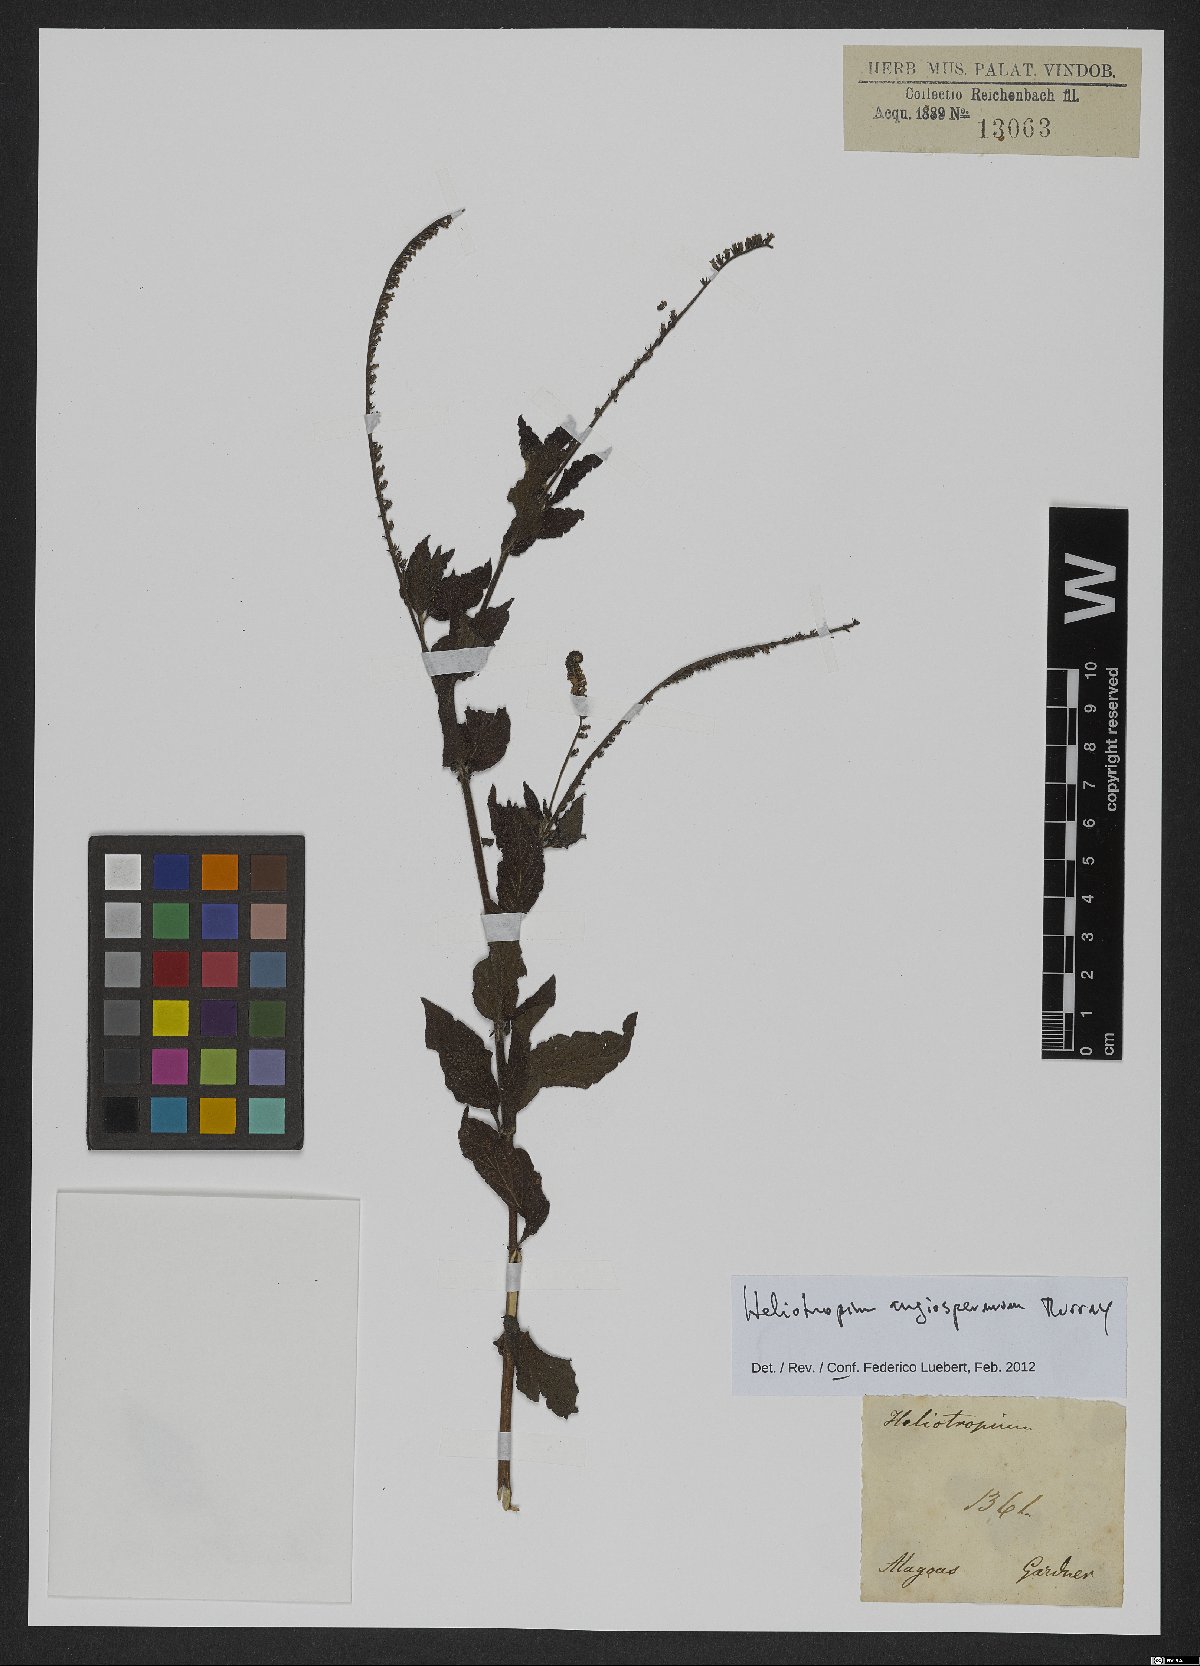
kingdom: Plantae
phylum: Tracheophyta
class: Magnoliopsida
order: Boraginales
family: Heliotropiaceae
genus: Heliotropium
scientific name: Heliotropium angiospermum
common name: Eye bright
